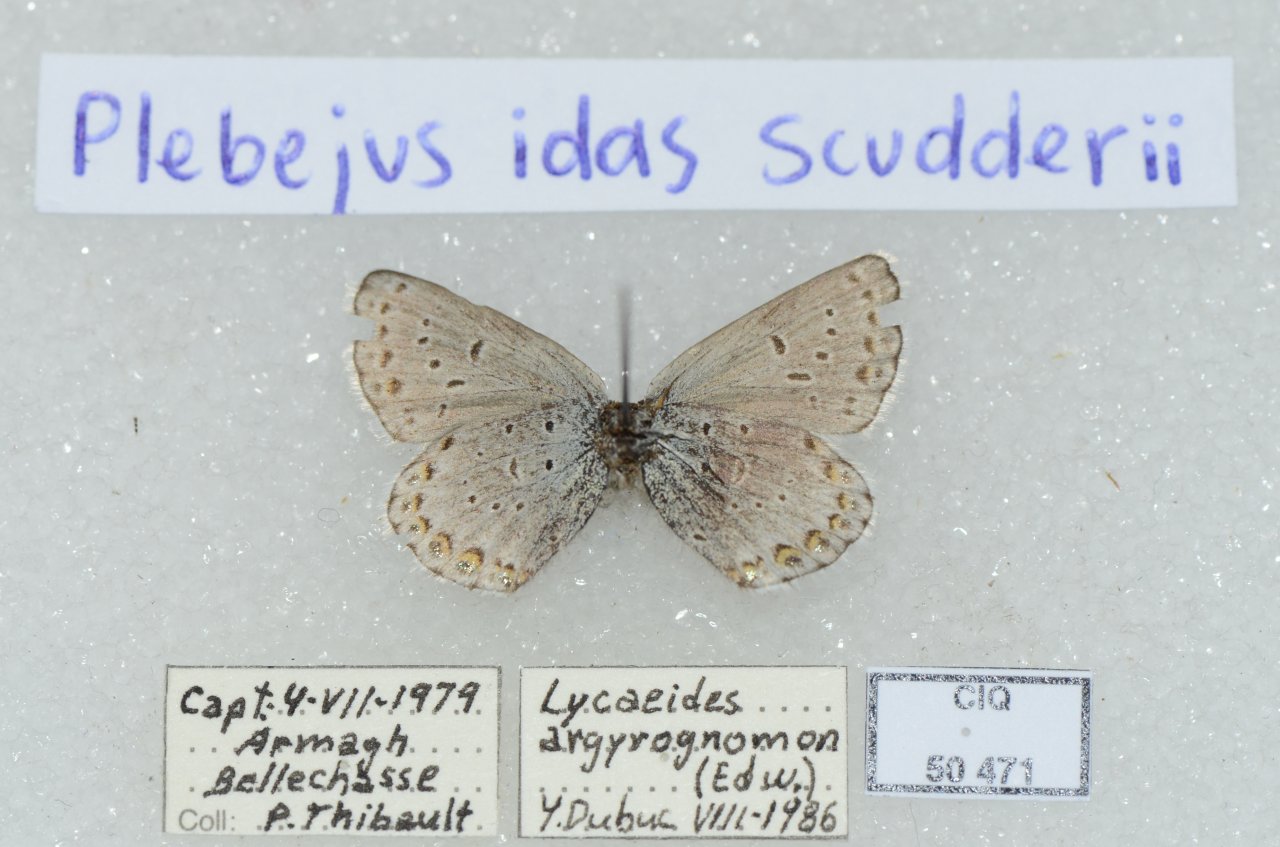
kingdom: Animalia
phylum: Arthropoda
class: Insecta
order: Lepidoptera
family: Lycaenidae
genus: Lycaeides
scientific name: Lycaeides idas
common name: Northern Blue
